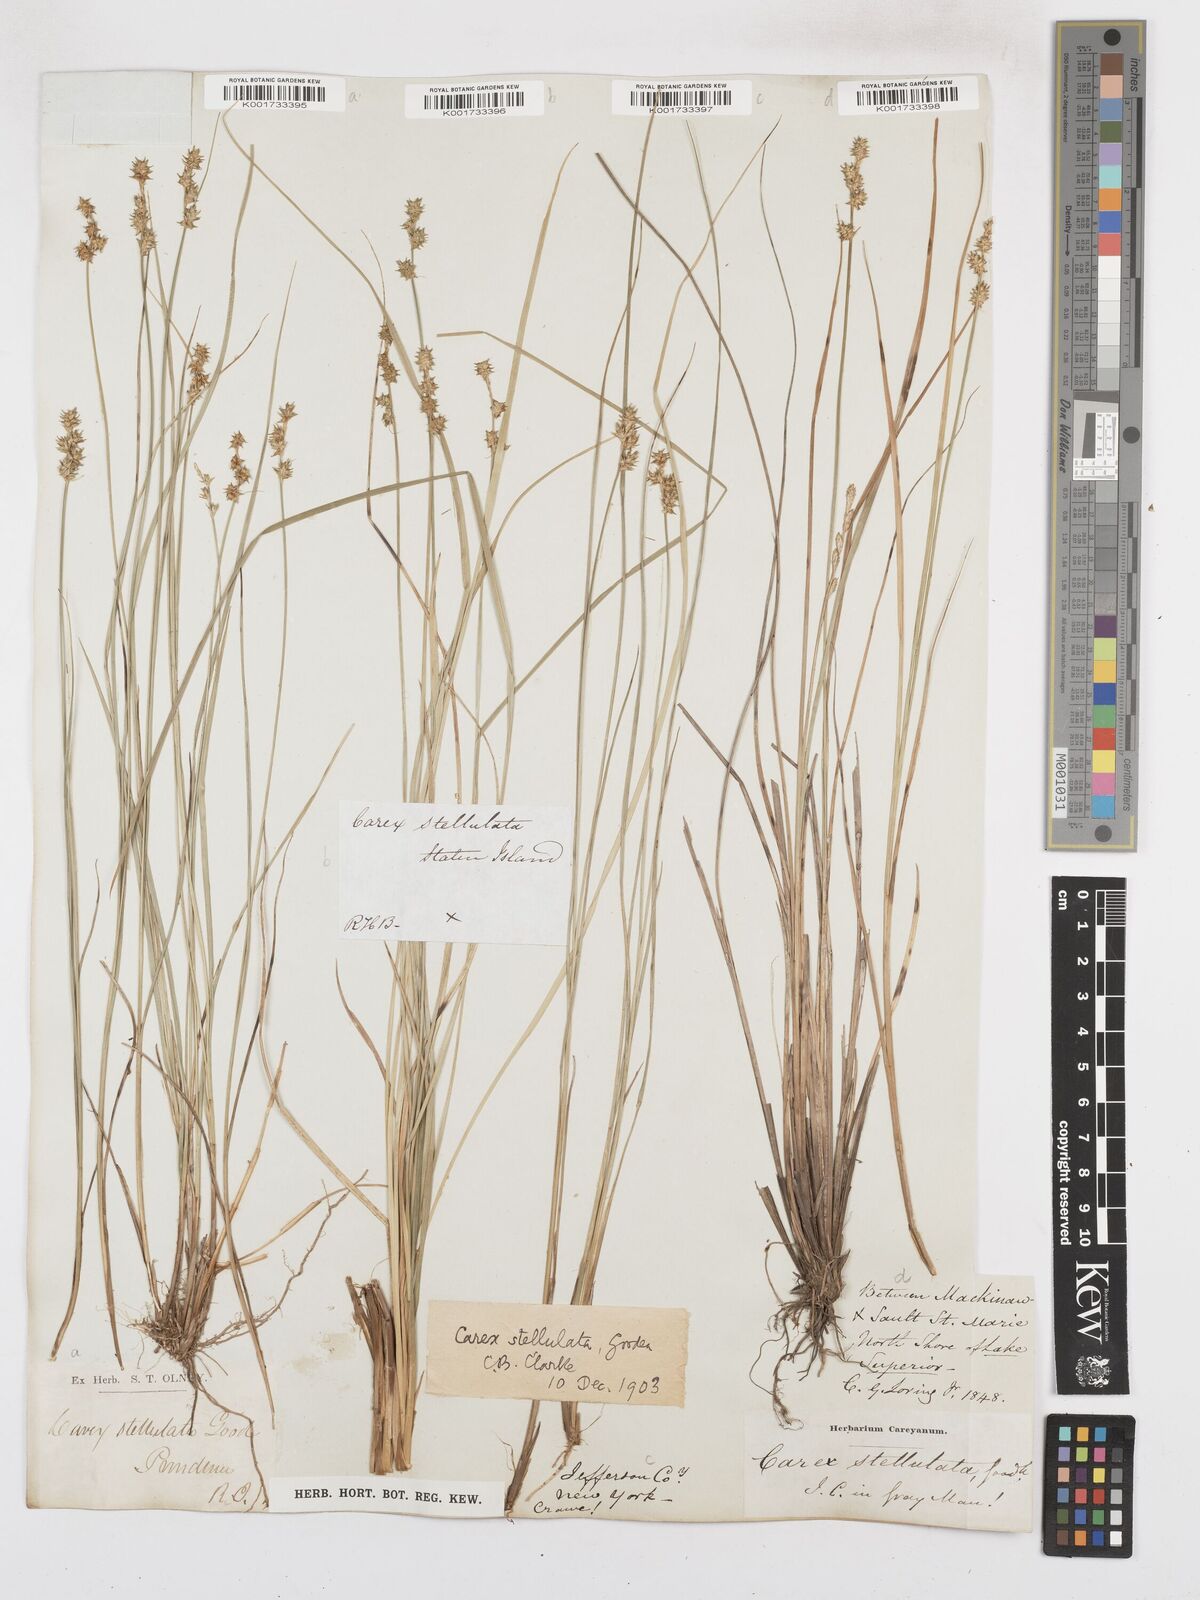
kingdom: Plantae
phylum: Tracheophyta
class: Liliopsida
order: Poales
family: Cyperaceae
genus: Carex
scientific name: Carex echinata
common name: Star sedge
